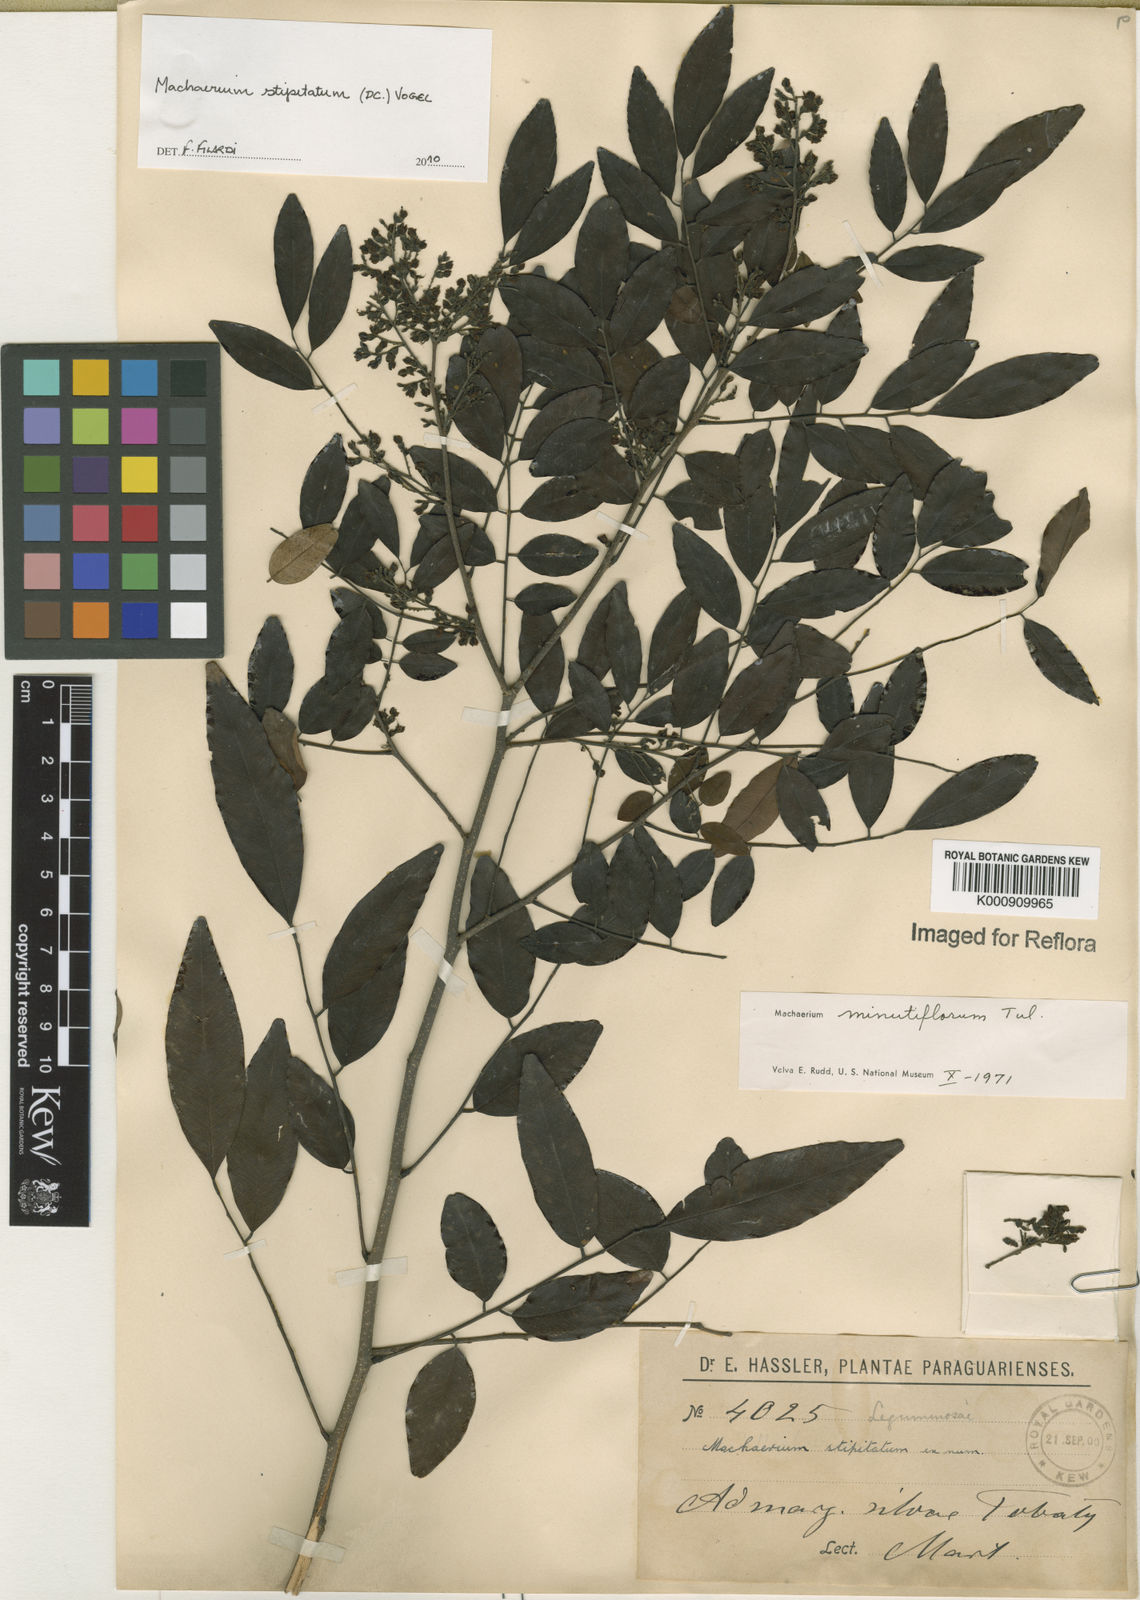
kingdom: Plantae
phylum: Tracheophyta
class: Magnoliopsida
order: Fabales
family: Fabaceae
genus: Machaerium
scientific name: Machaerium stipitatum
